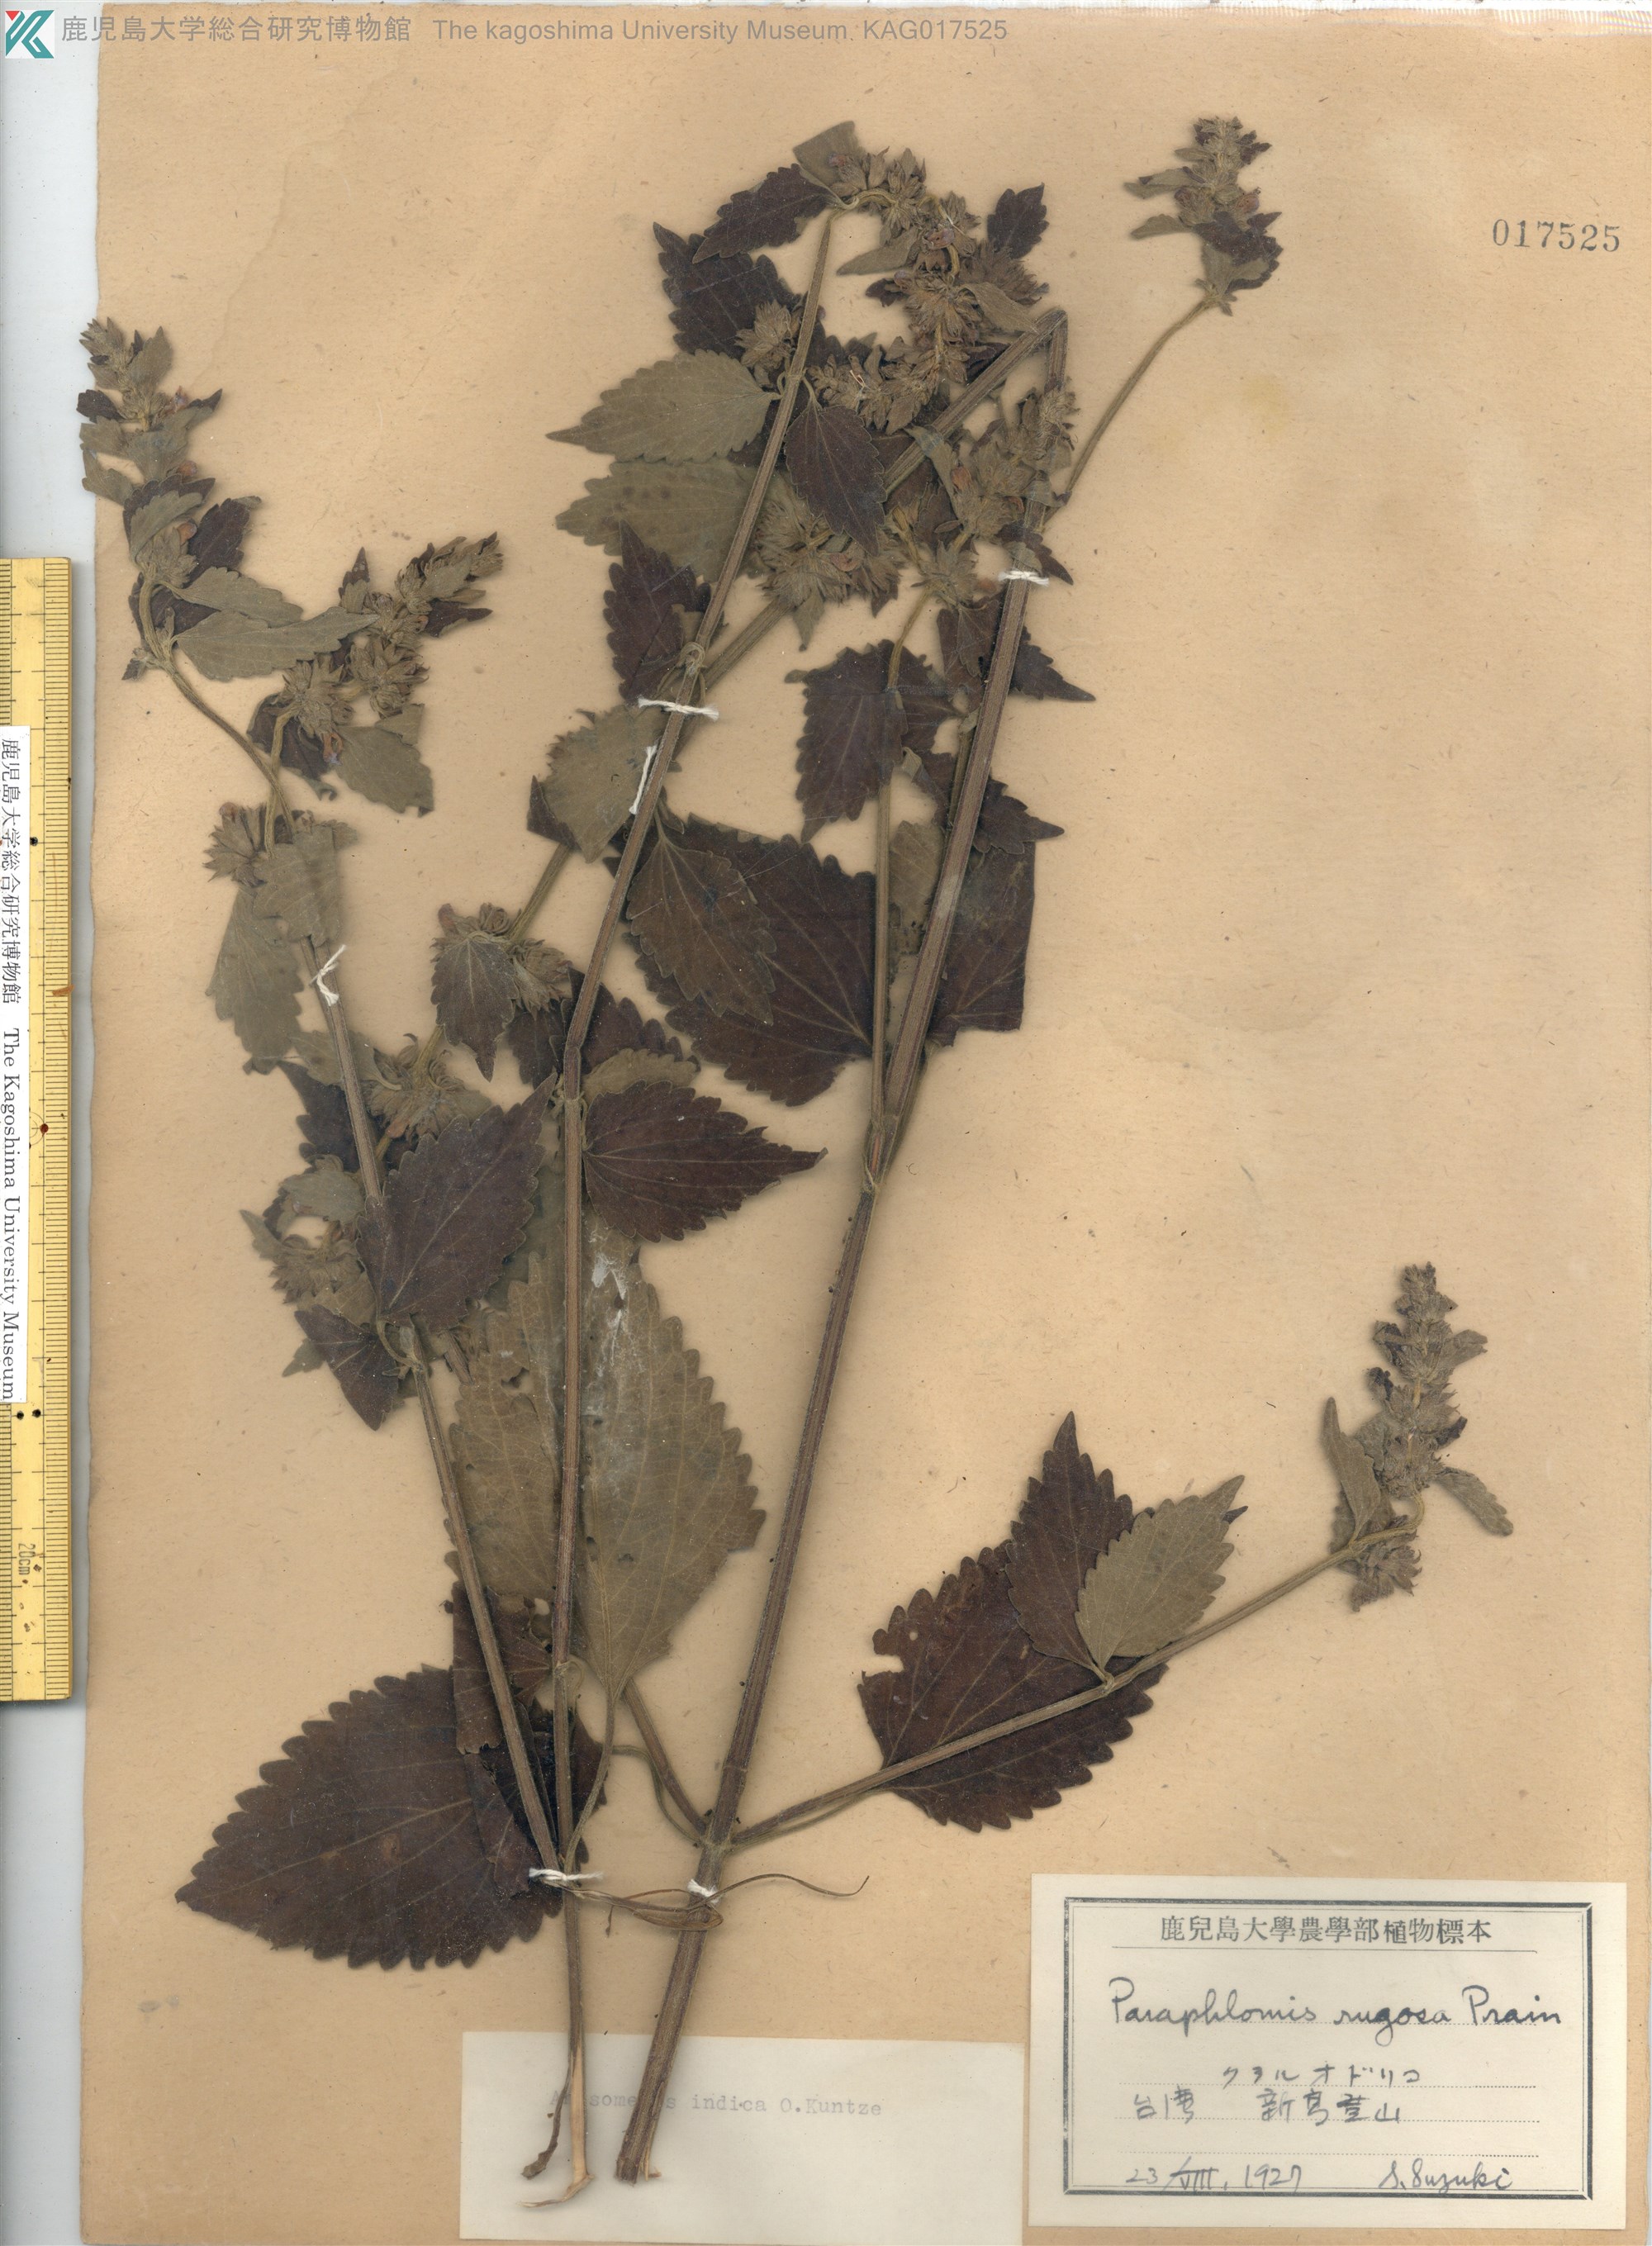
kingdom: Plantae
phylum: Tracheophyta
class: Magnoliopsida
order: Lamiales
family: Lamiaceae
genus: Anisomeles
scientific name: Anisomeles indica
